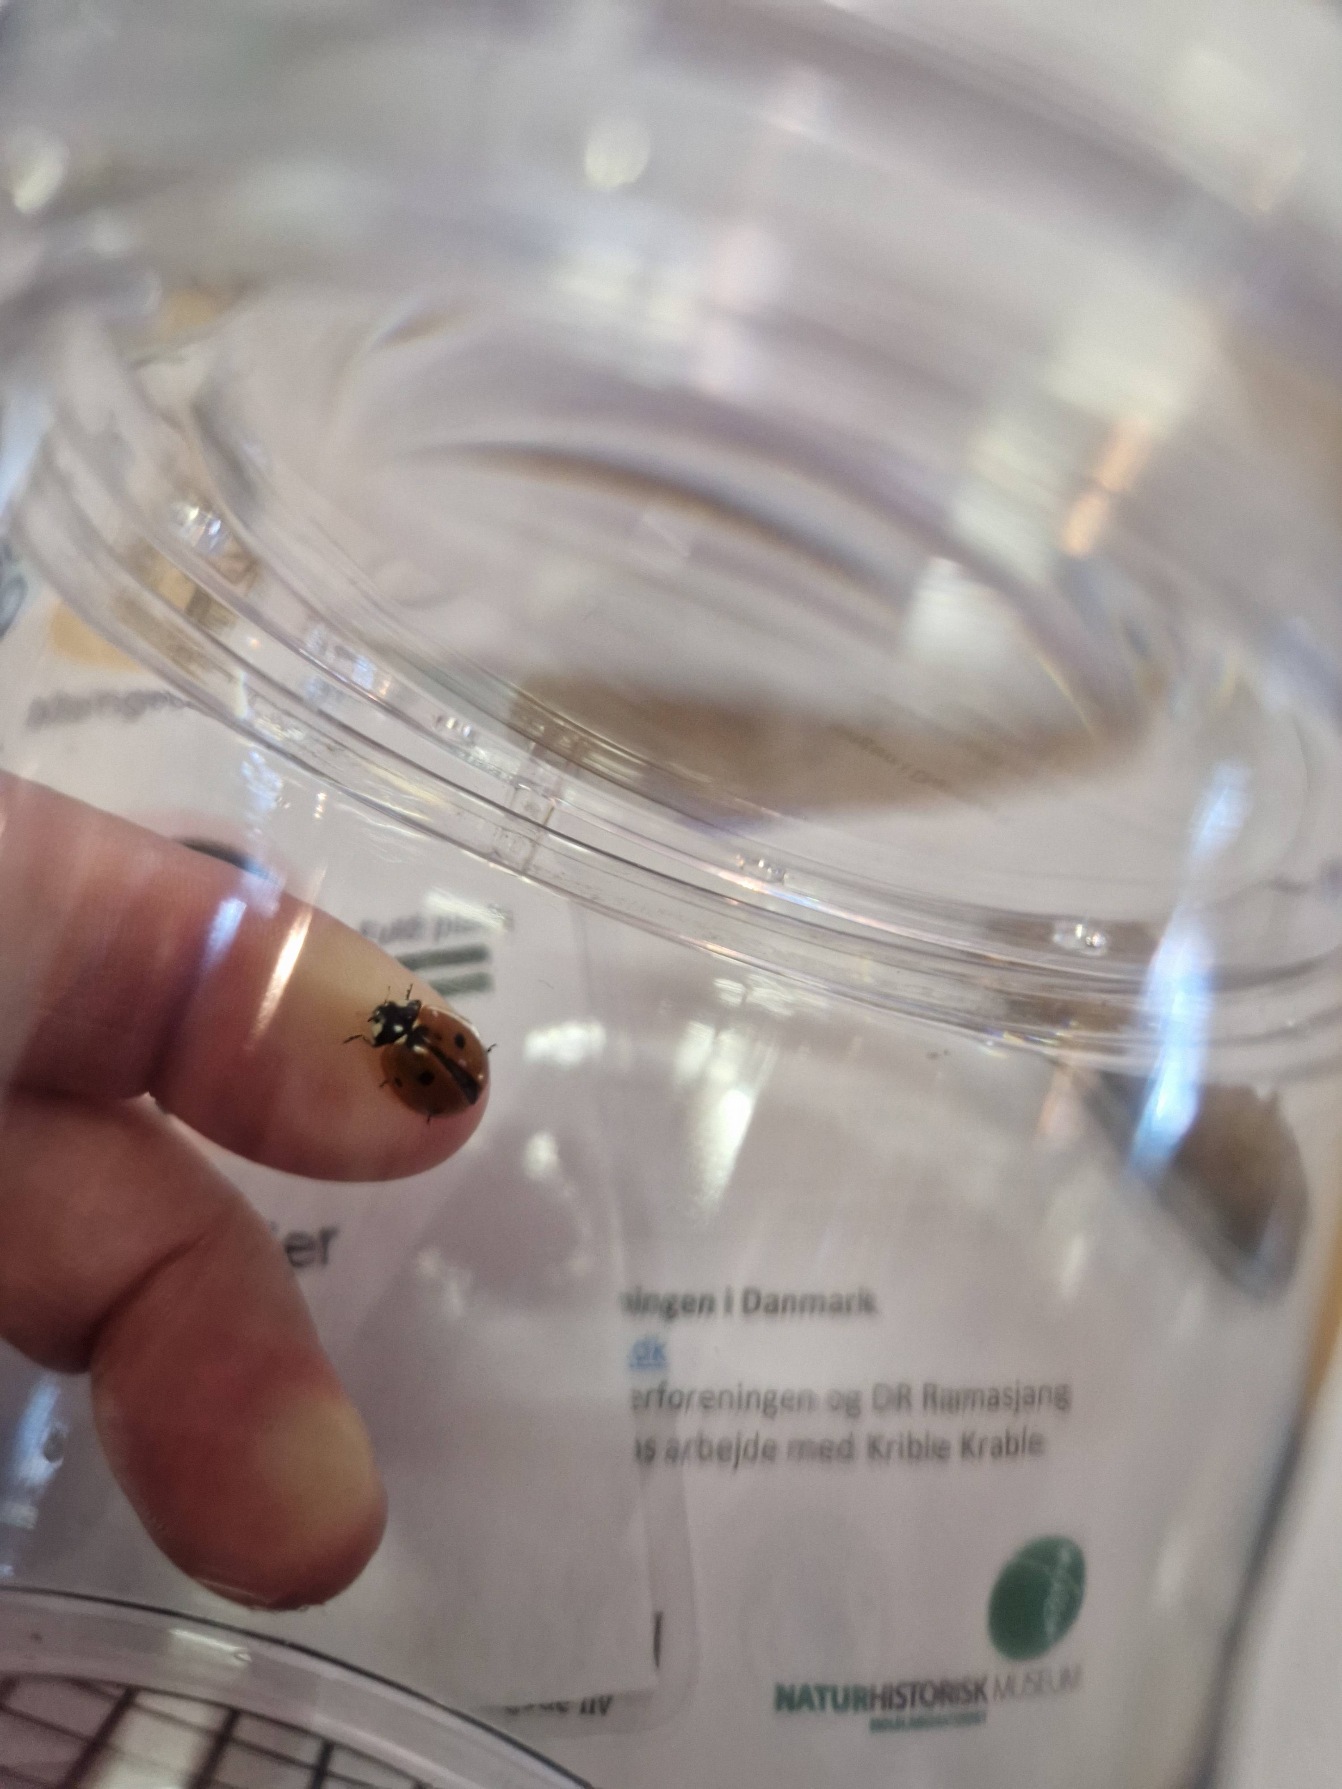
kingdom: Animalia
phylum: Arthropoda
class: Insecta
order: Coleoptera
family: Coccinellidae
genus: Coccinella
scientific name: Coccinella septempunctata
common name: Syvplettet mariehøne
